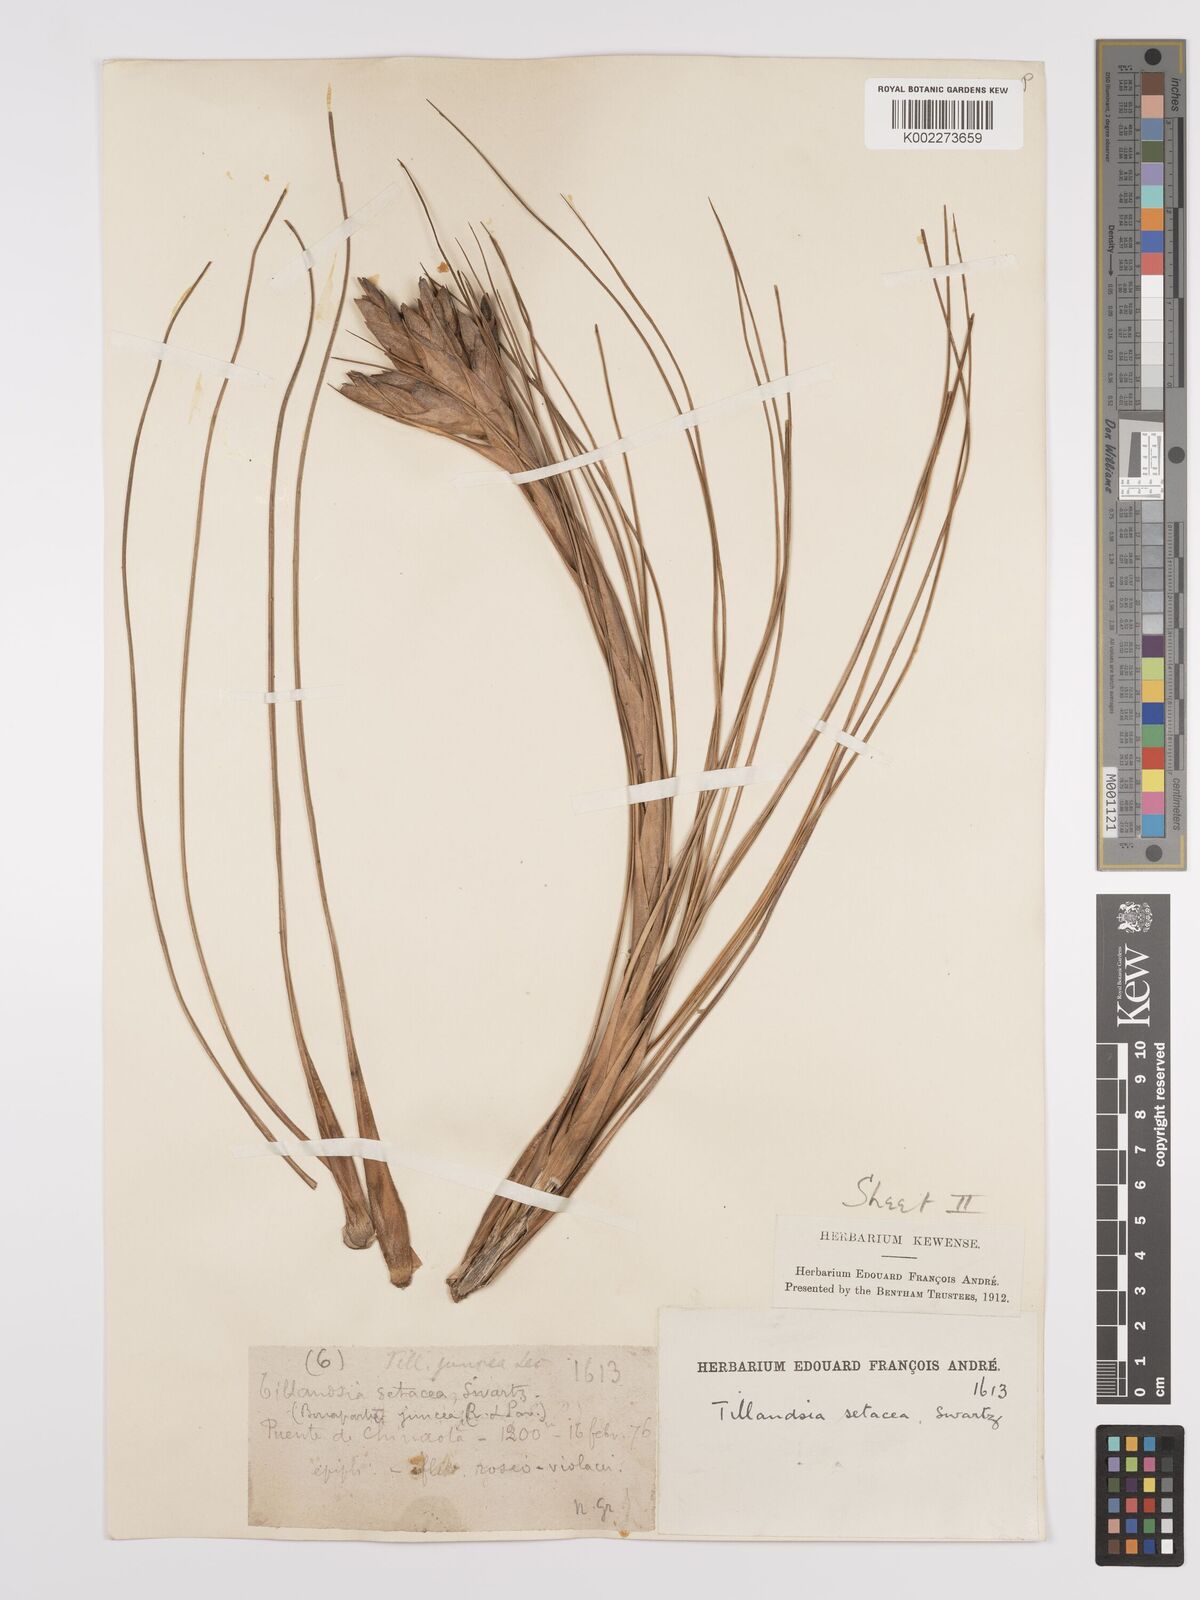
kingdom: Plantae
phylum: Tracheophyta
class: Liliopsida
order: Poales
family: Bromeliaceae
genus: Tillandsia
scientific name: Tillandsia juncea
